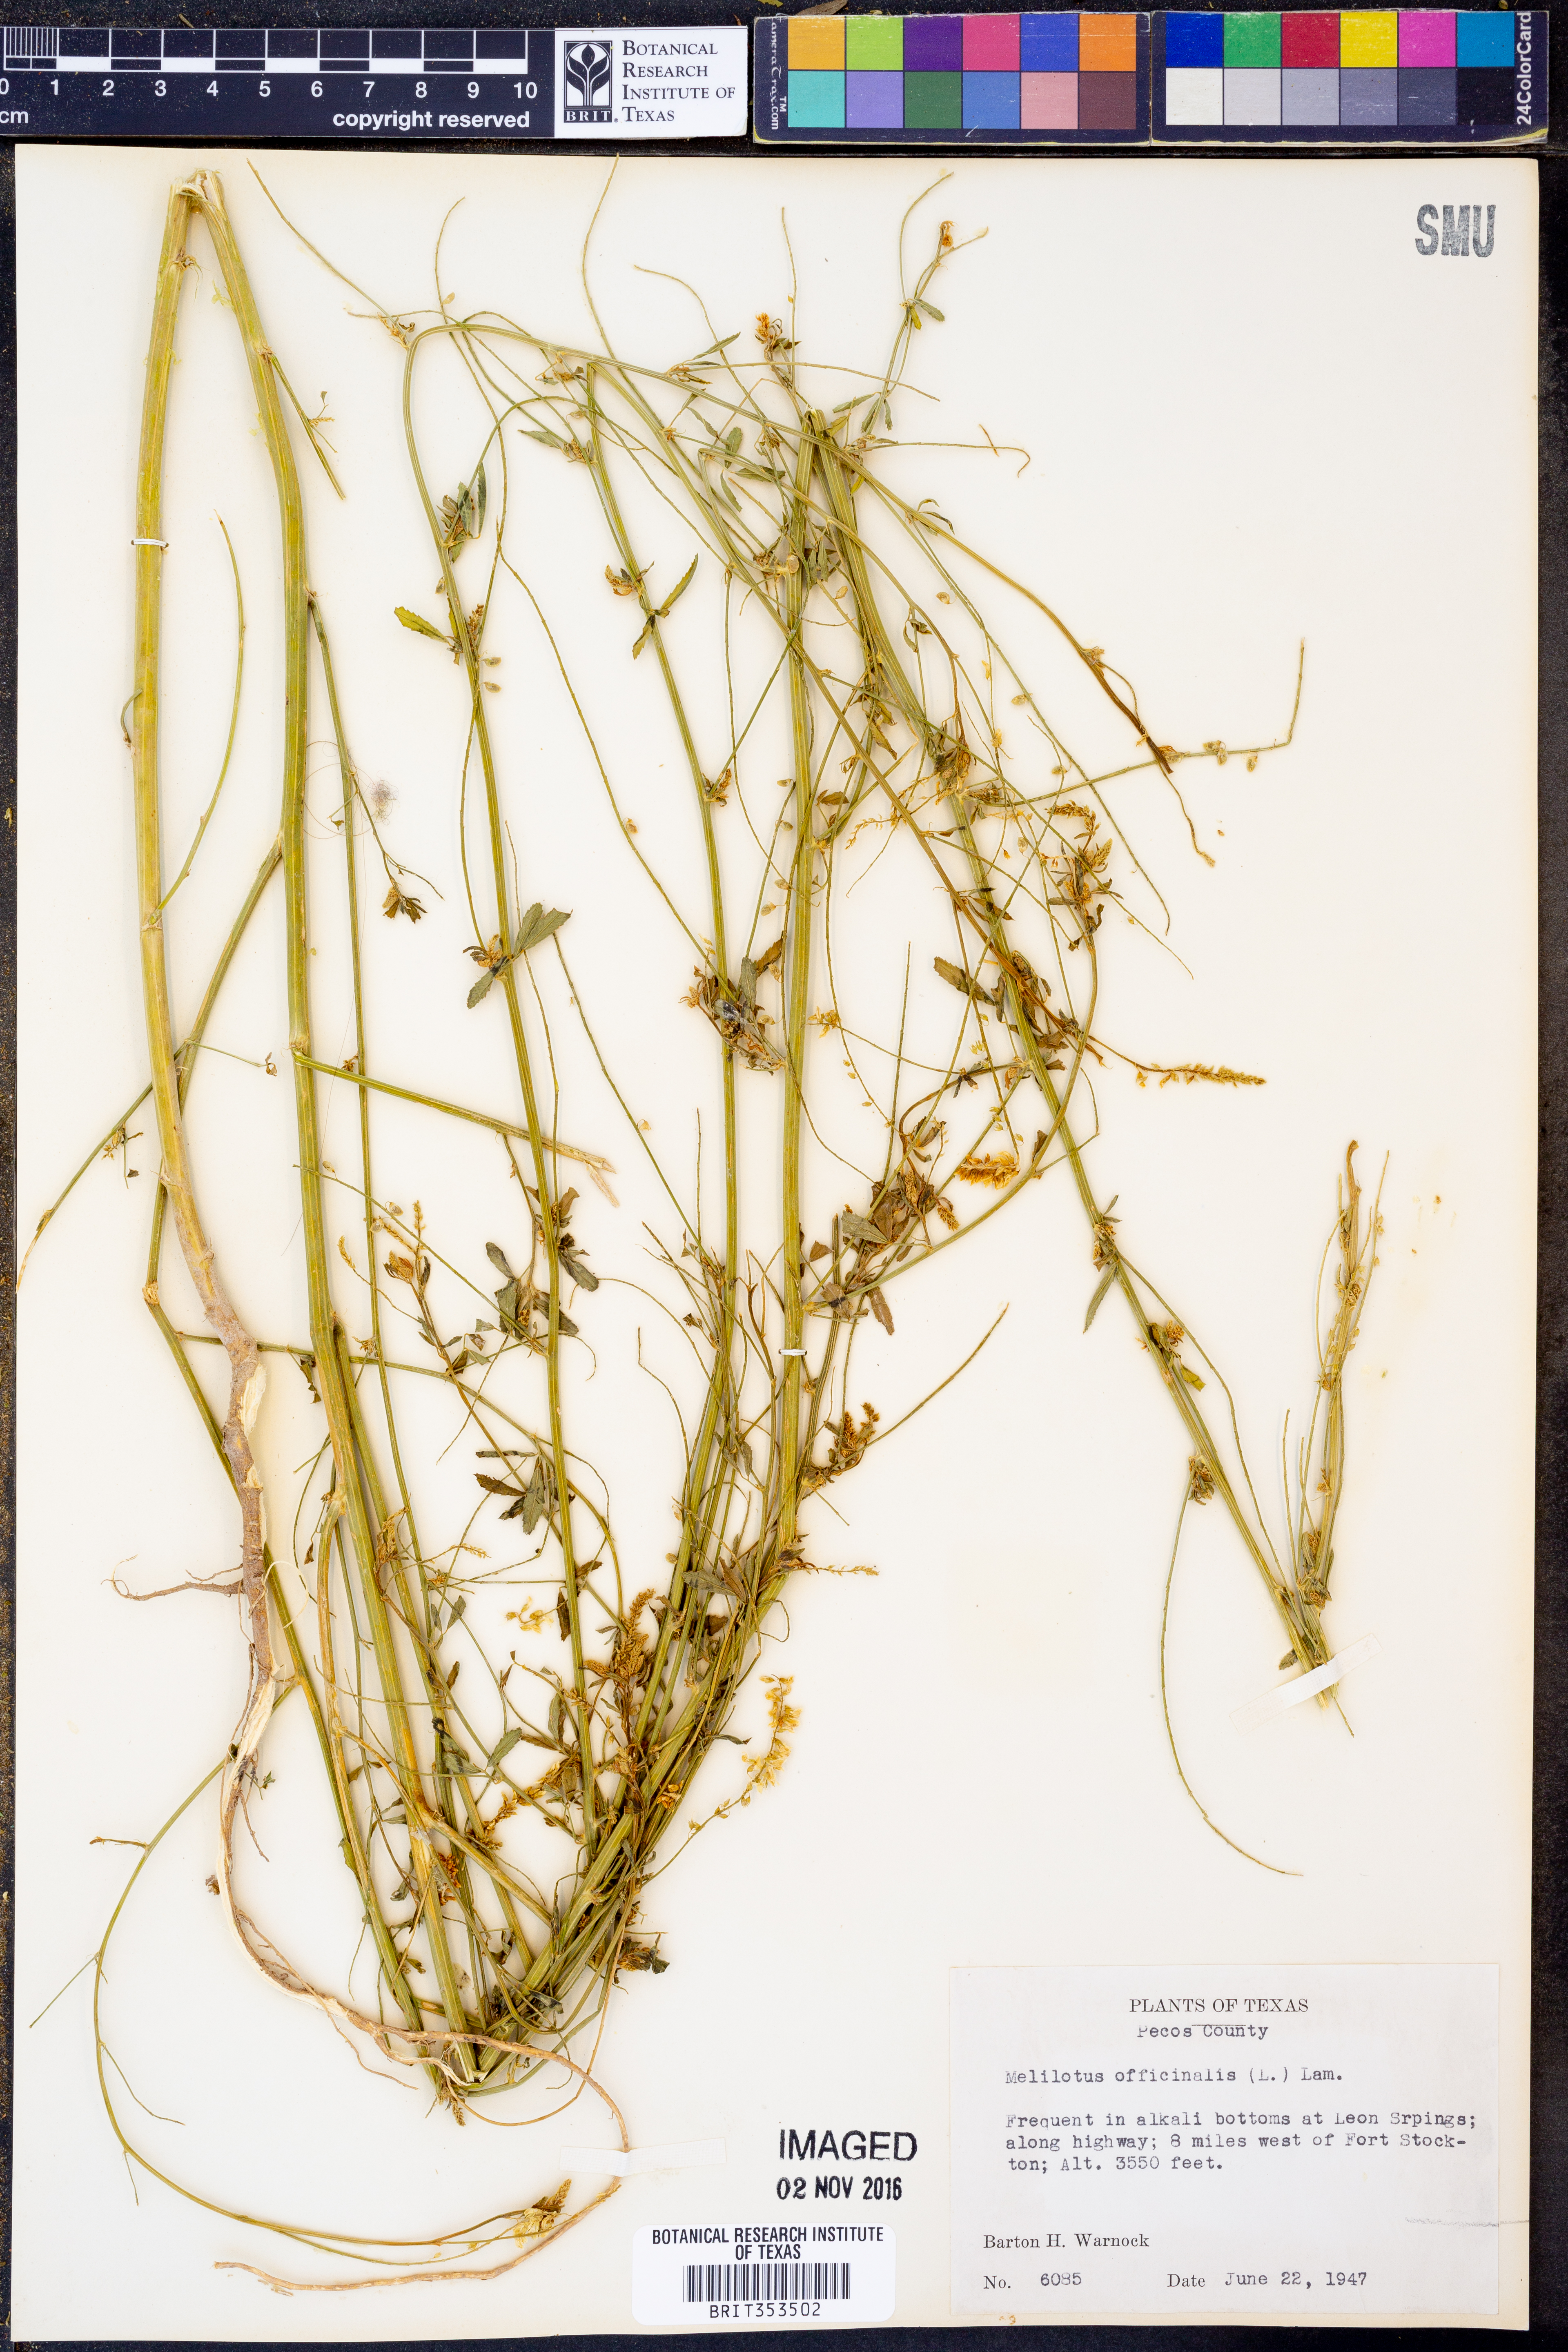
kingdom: Plantae
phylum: Tracheophyta
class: Magnoliopsida
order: Fabales
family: Fabaceae
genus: Melilotus
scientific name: Melilotus officinalis
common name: Sweetclover
